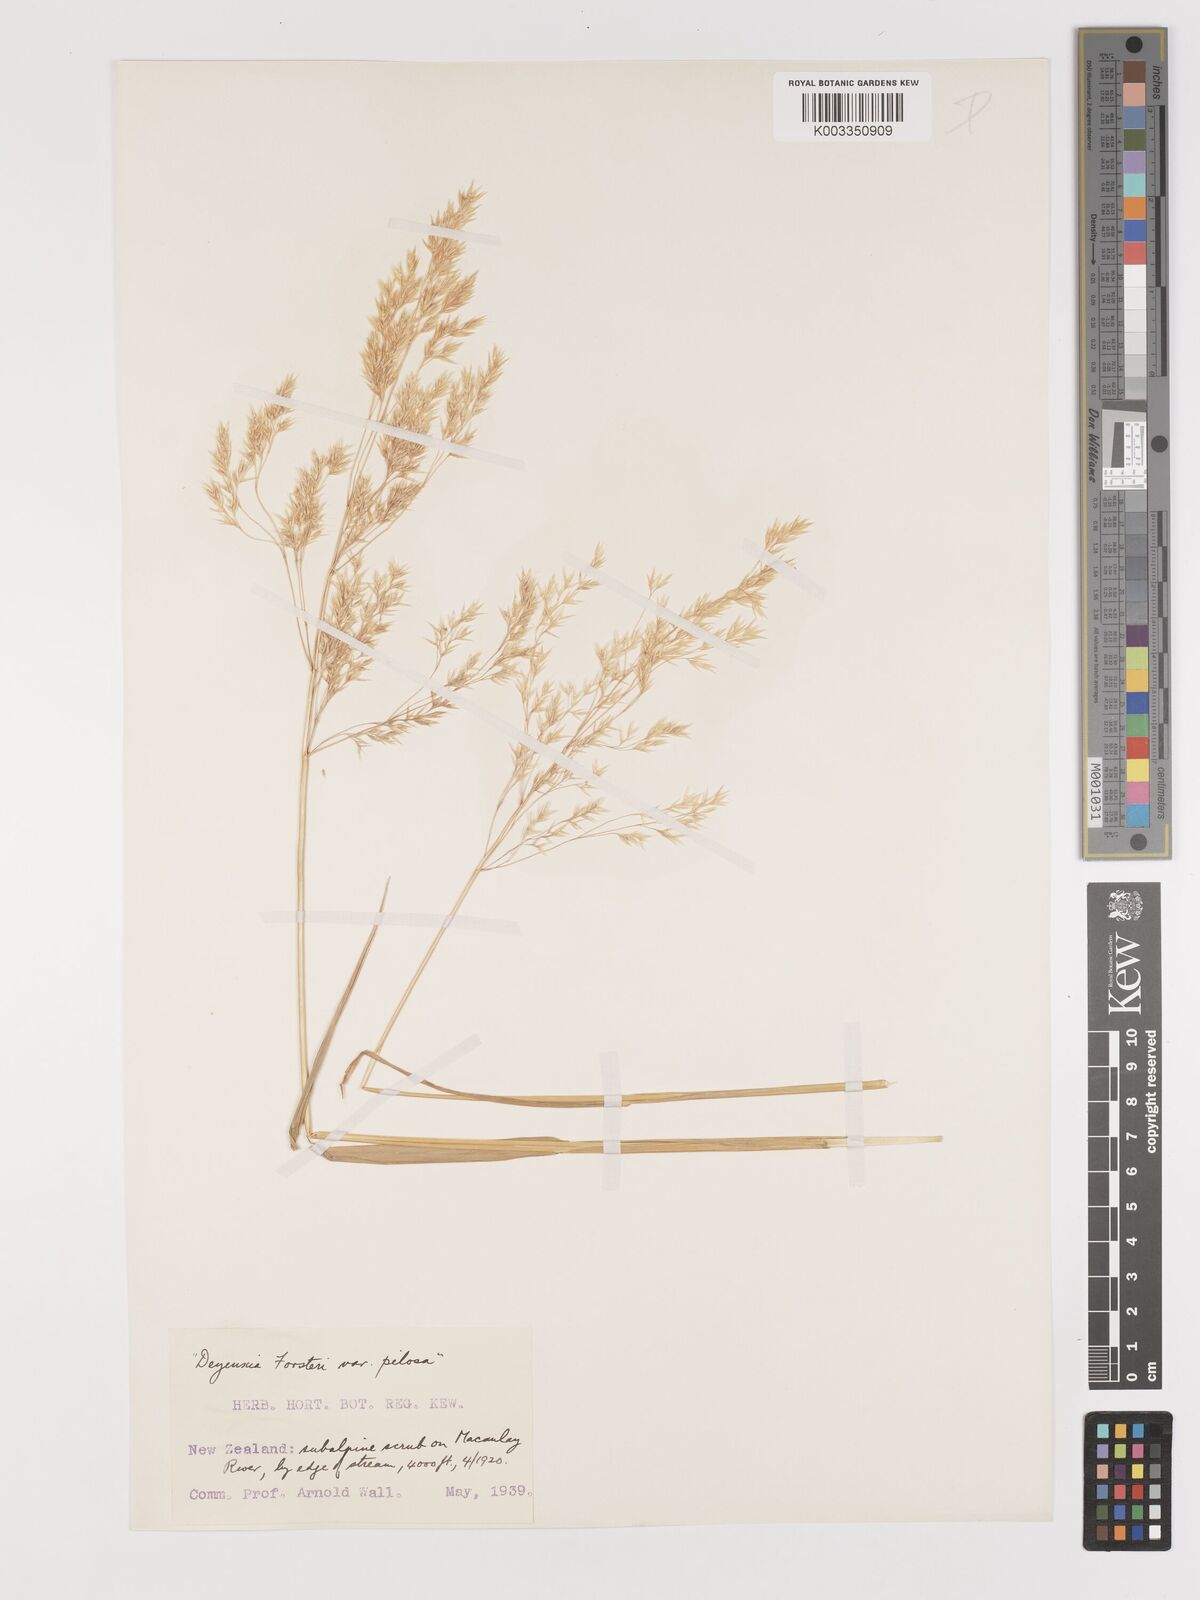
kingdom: Plantae
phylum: Tracheophyta
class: Liliopsida
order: Poales
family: Poaceae
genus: Lachnagrostis
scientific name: Lachnagrostis filiformis
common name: Bentgrass
